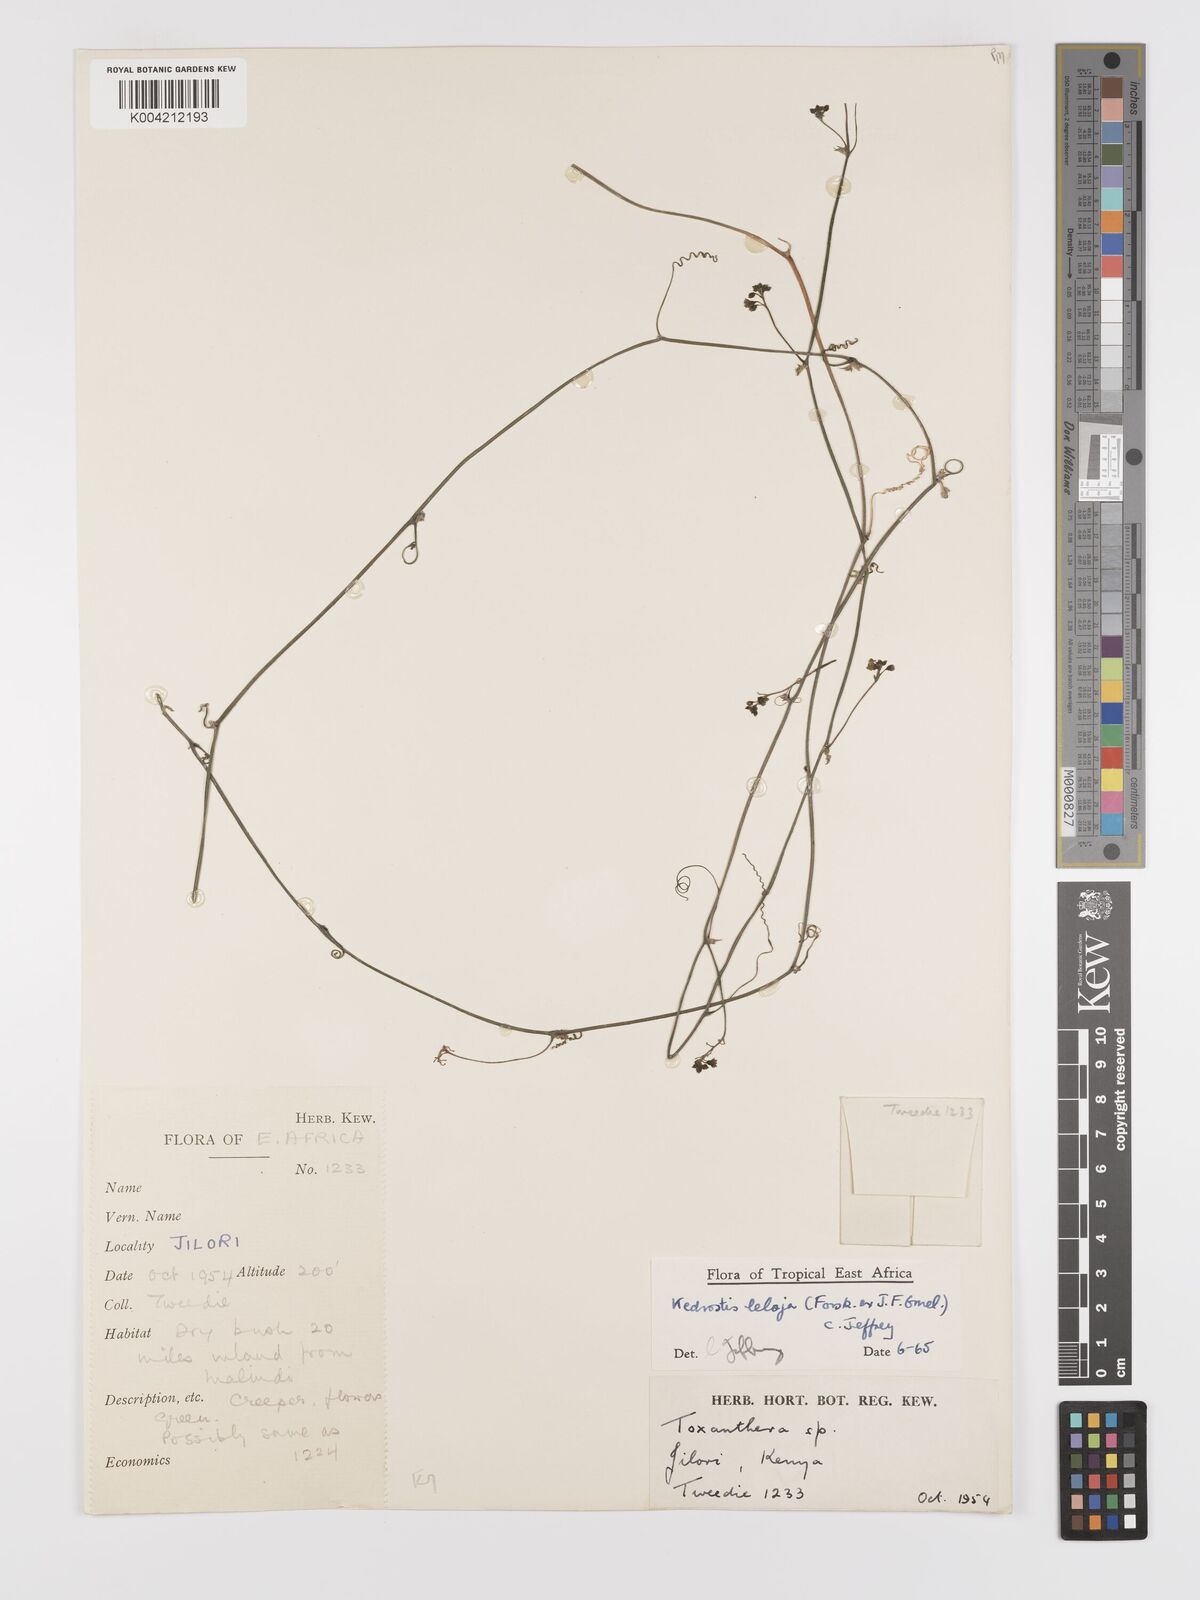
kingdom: Plantae
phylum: Tracheophyta
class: Magnoliopsida
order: Cucurbitales
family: Cucurbitaceae
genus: Kedrostis
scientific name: Kedrostis abdallae
